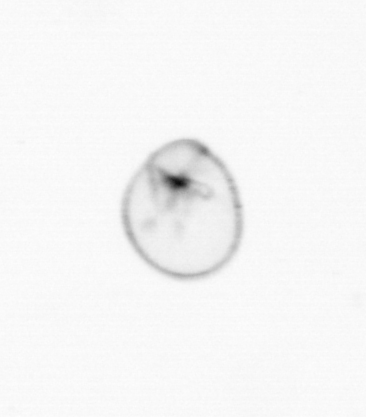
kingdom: Chromista
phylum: Myzozoa
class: Dinophyceae
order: Noctilucales
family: Noctilucaceae
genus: Noctiluca
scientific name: Noctiluca scintillans
